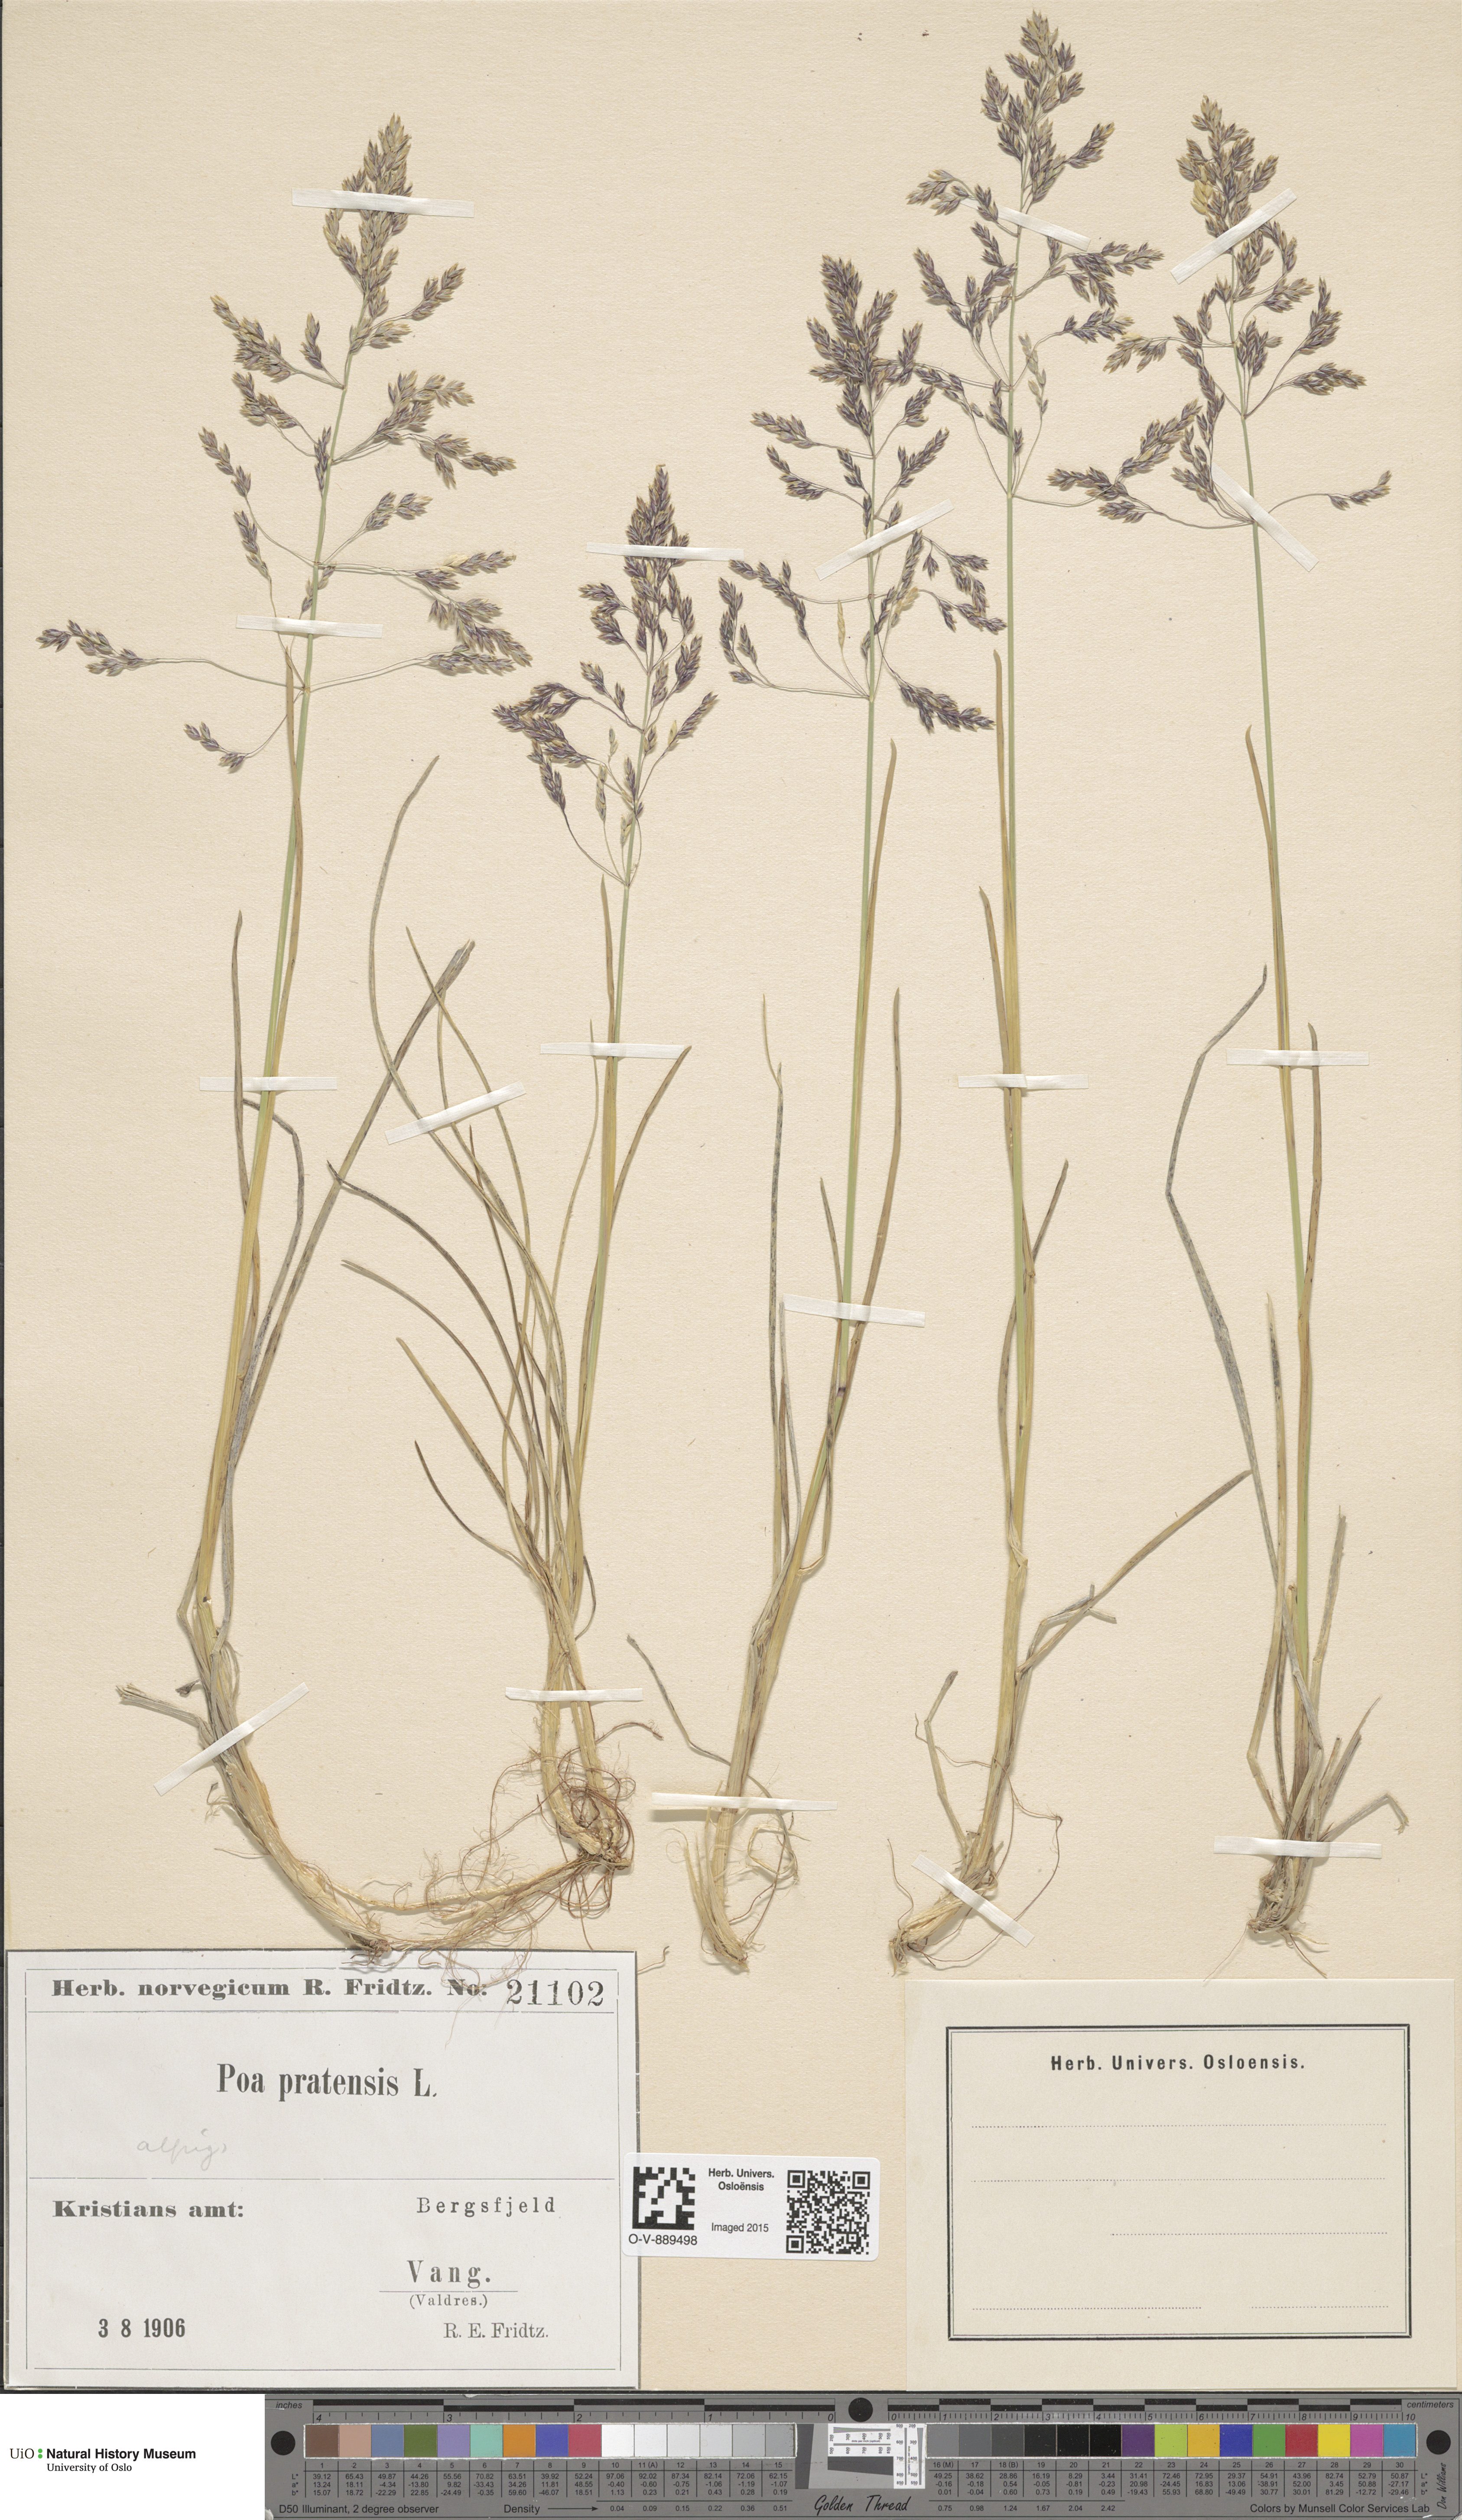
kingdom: Plantae
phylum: Tracheophyta
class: Liliopsida
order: Poales
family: Poaceae
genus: Poa
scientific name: Poa alpigena
